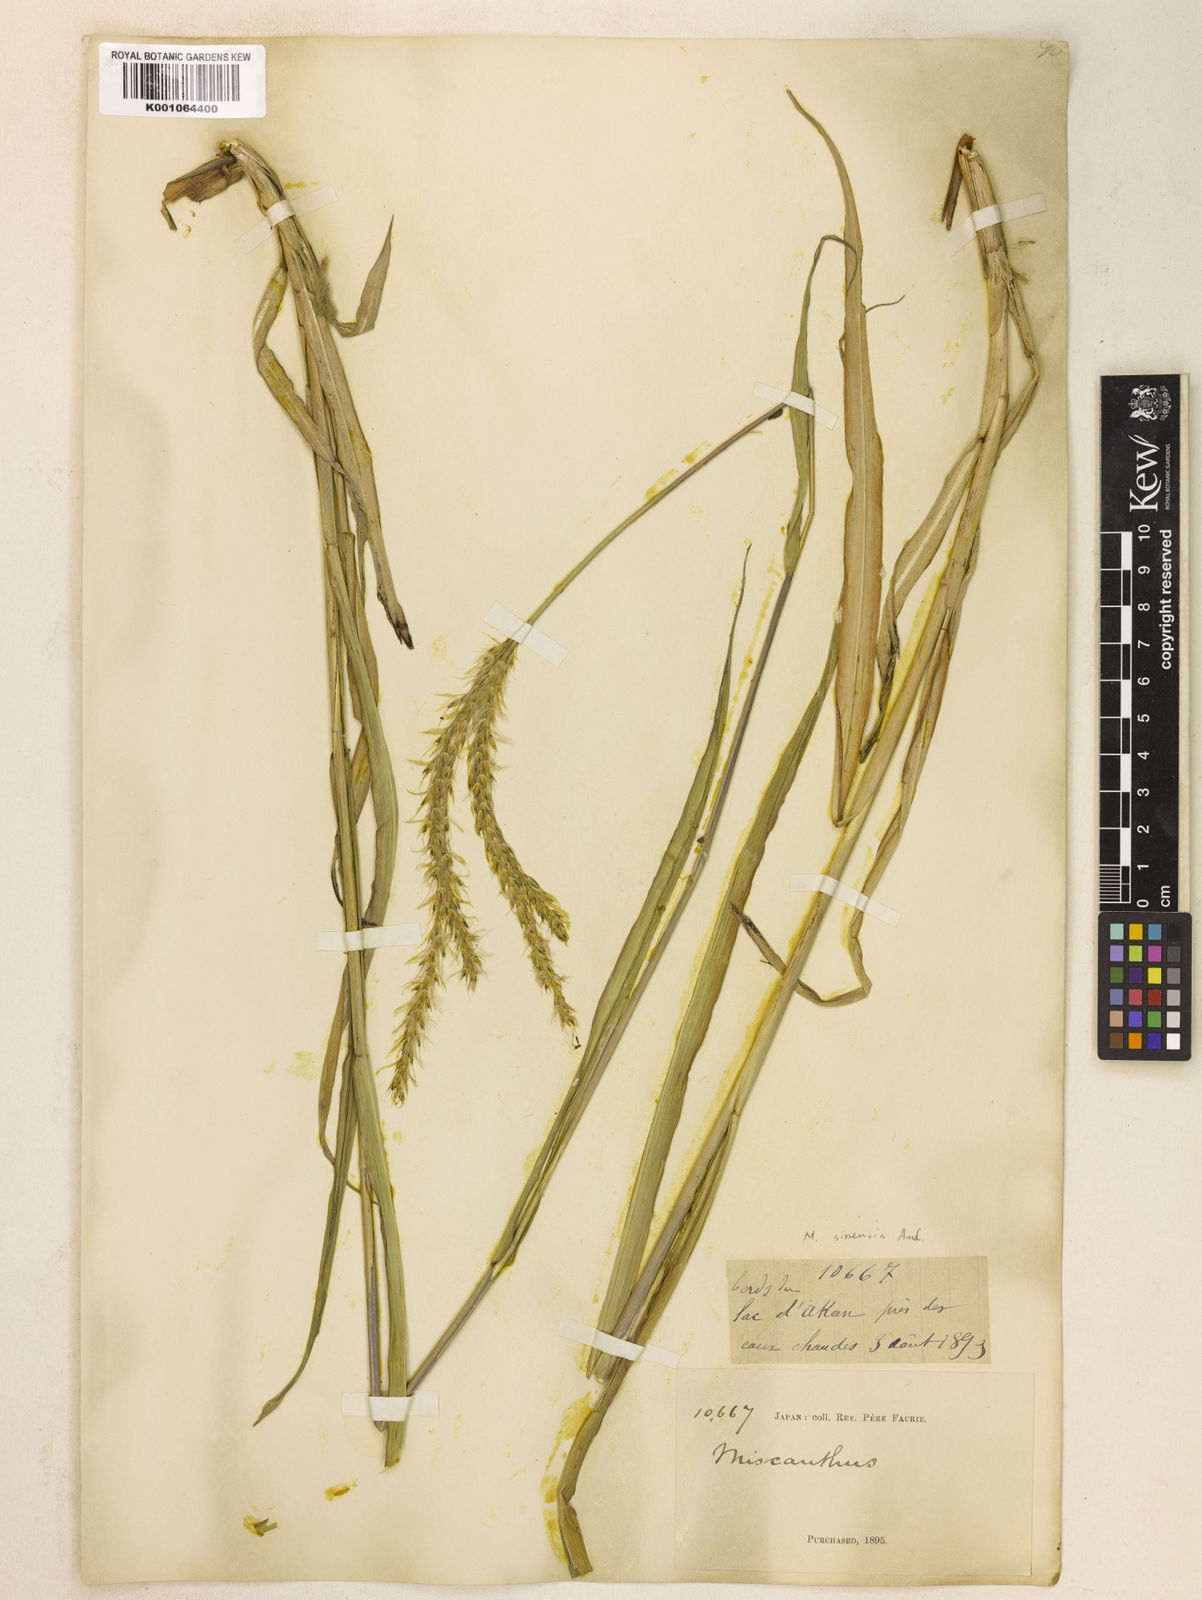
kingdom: Plantae
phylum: Tracheophyta
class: Liliopsida
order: Poales
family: Poaceae
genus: Miscanthus
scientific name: Miscanthus sinensis
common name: Chinese silvergrass
